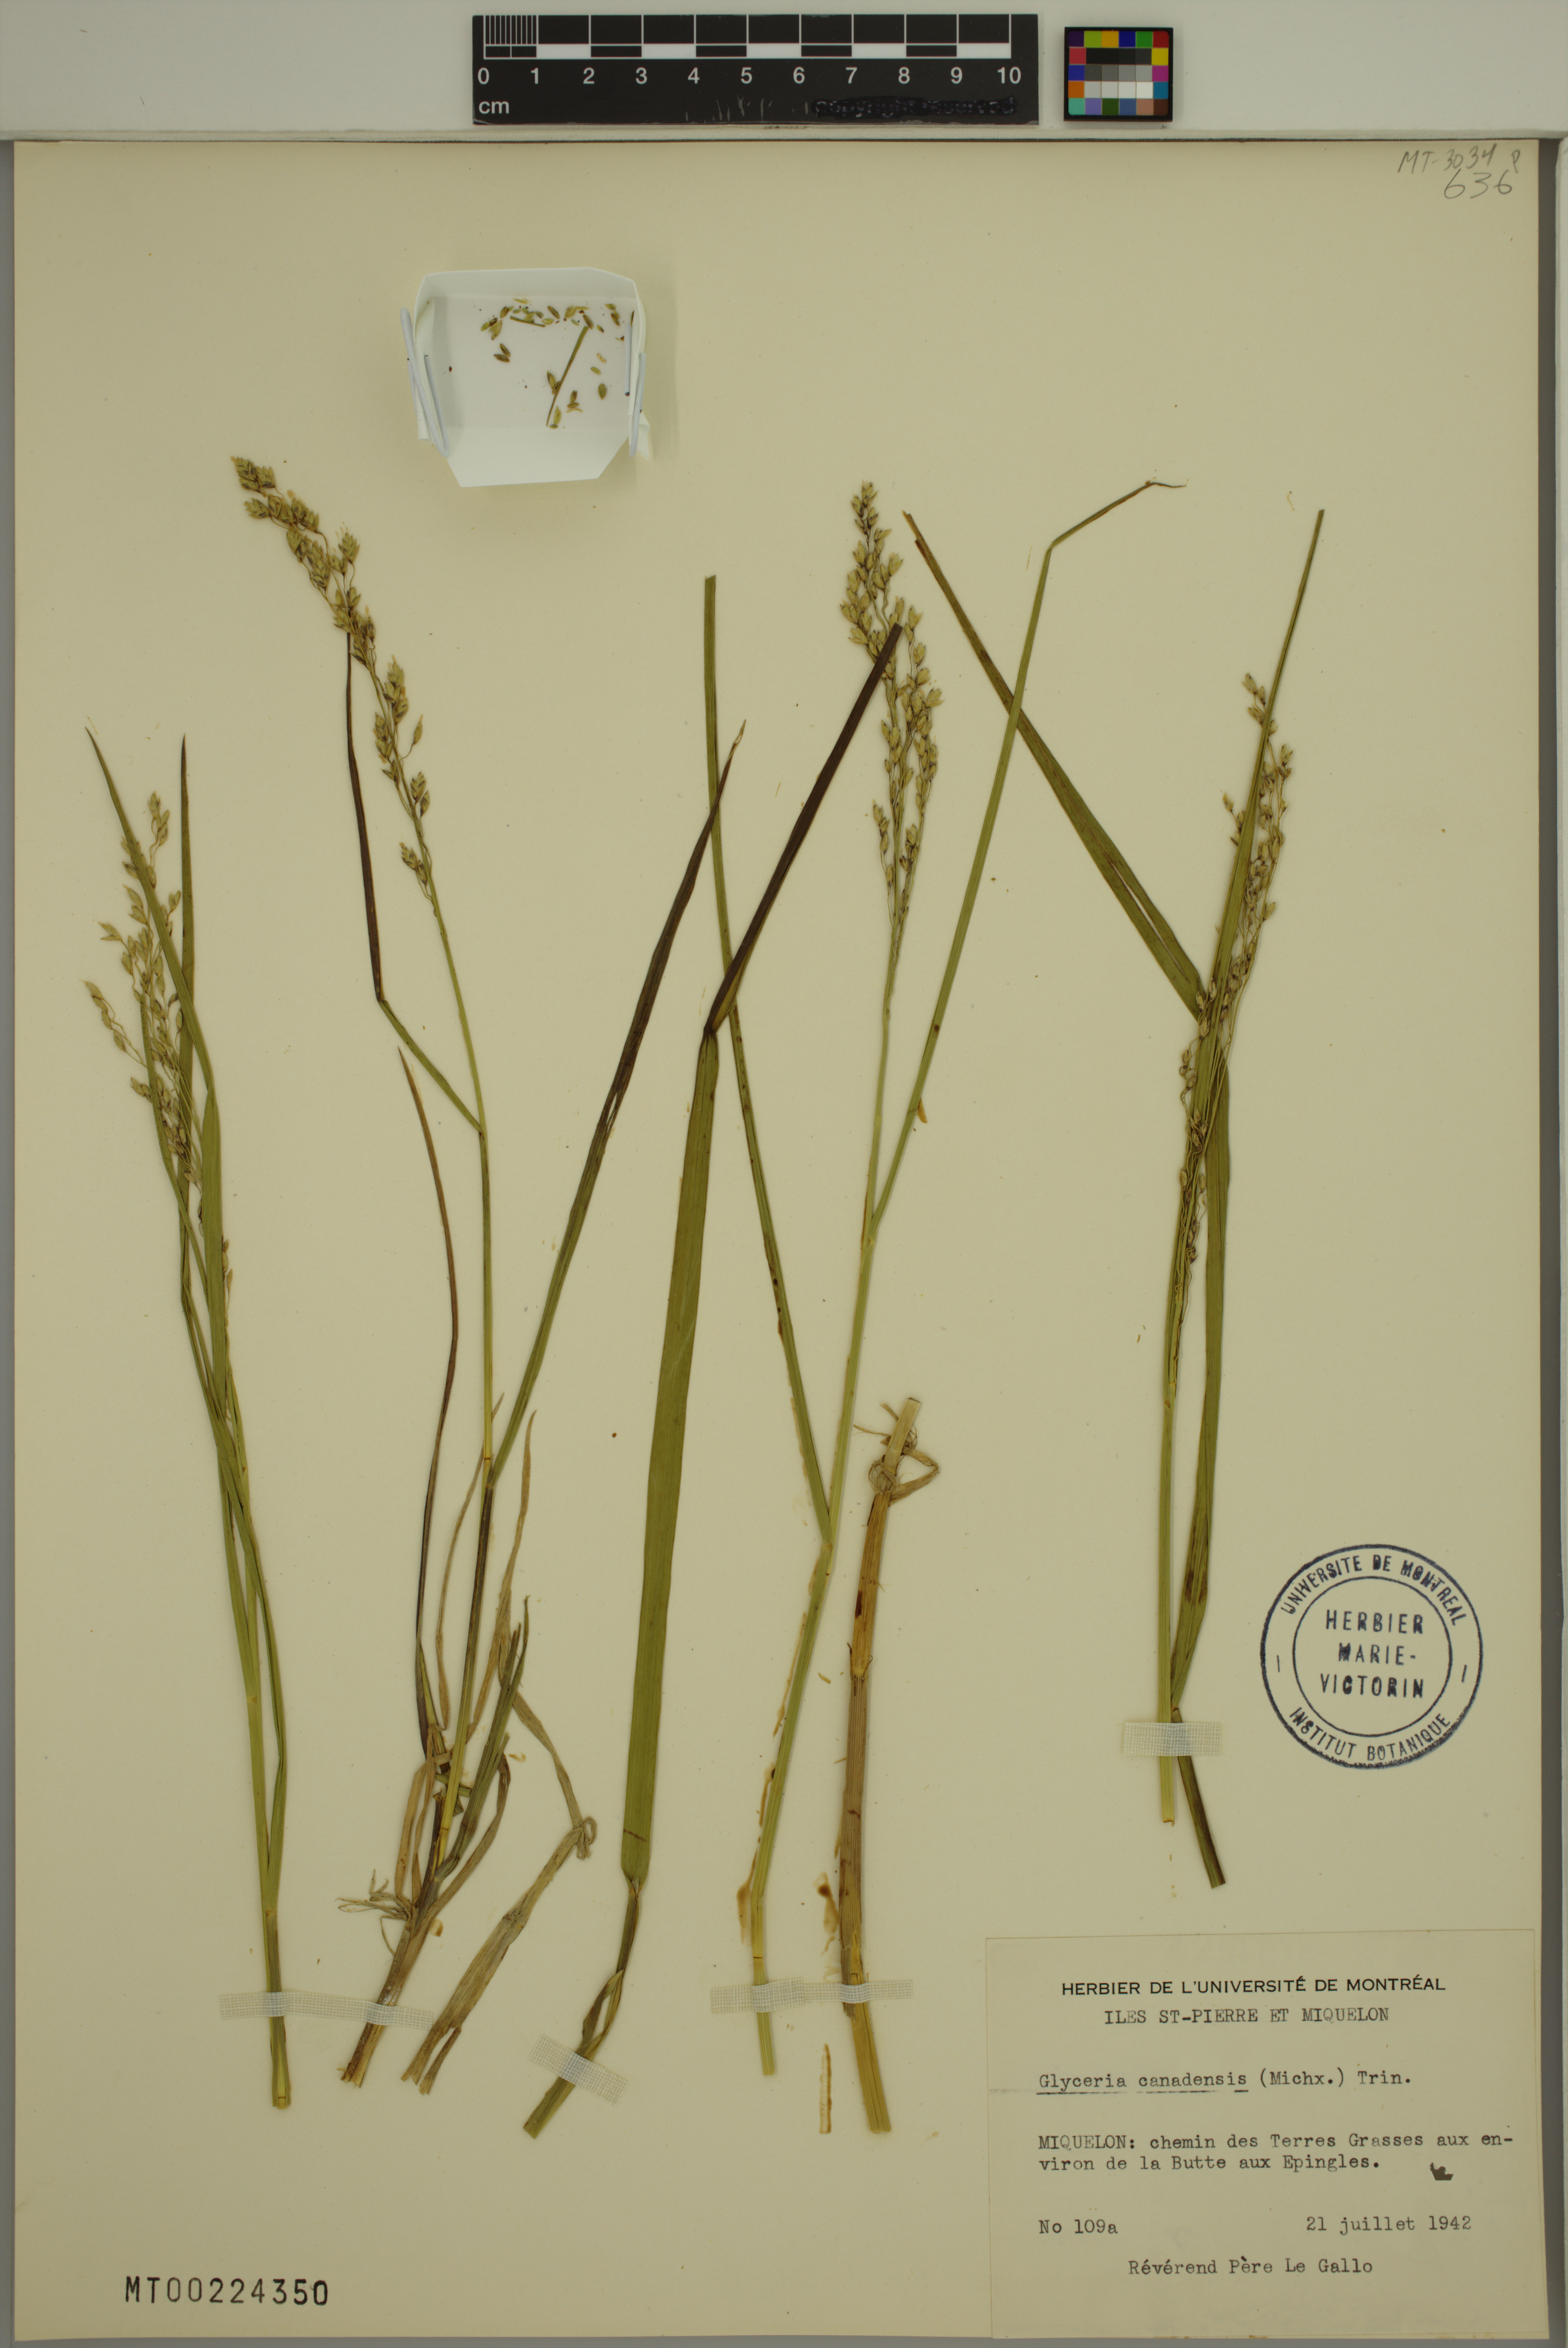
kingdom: Plantae
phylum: Tracheophyta
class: Liliopsida
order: Poales
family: Poaceae
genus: Glyceria
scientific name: Glyceria canadensis
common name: Canada mannagrass
